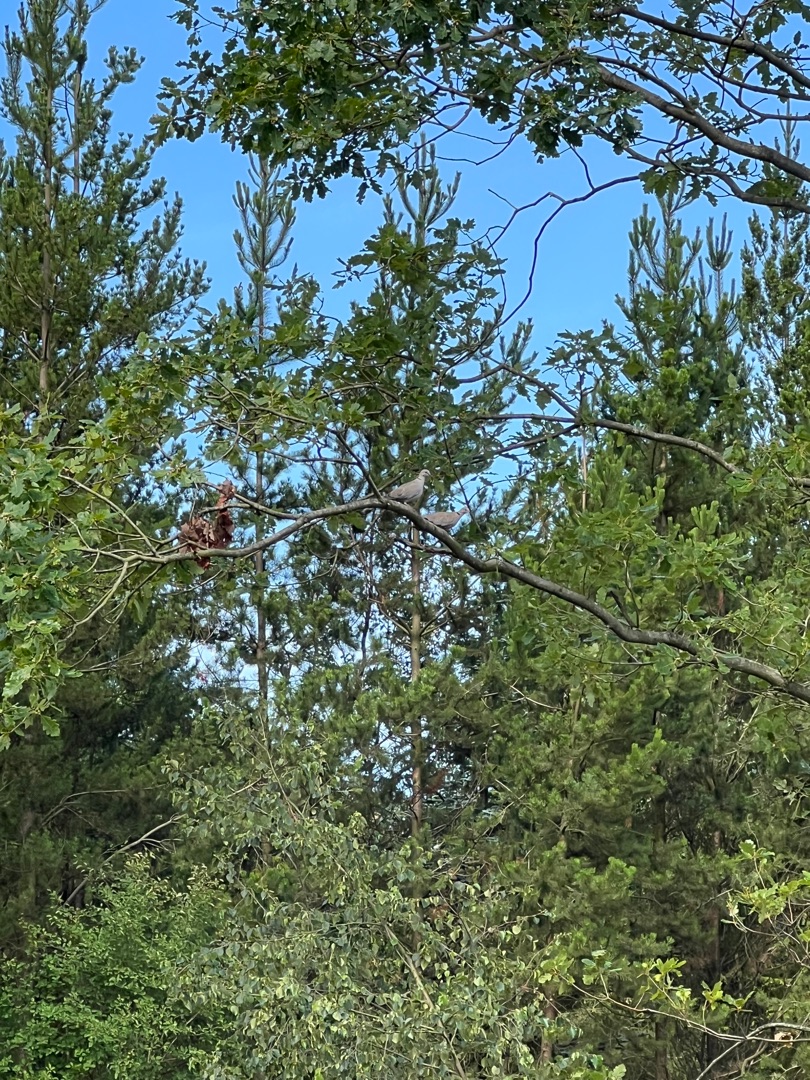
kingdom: Animalia
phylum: Chordata
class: Aves
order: Columbiformes
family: Columbidae
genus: Streptopelia
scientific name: Streptopelia decaocto
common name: Tyrkerdue
